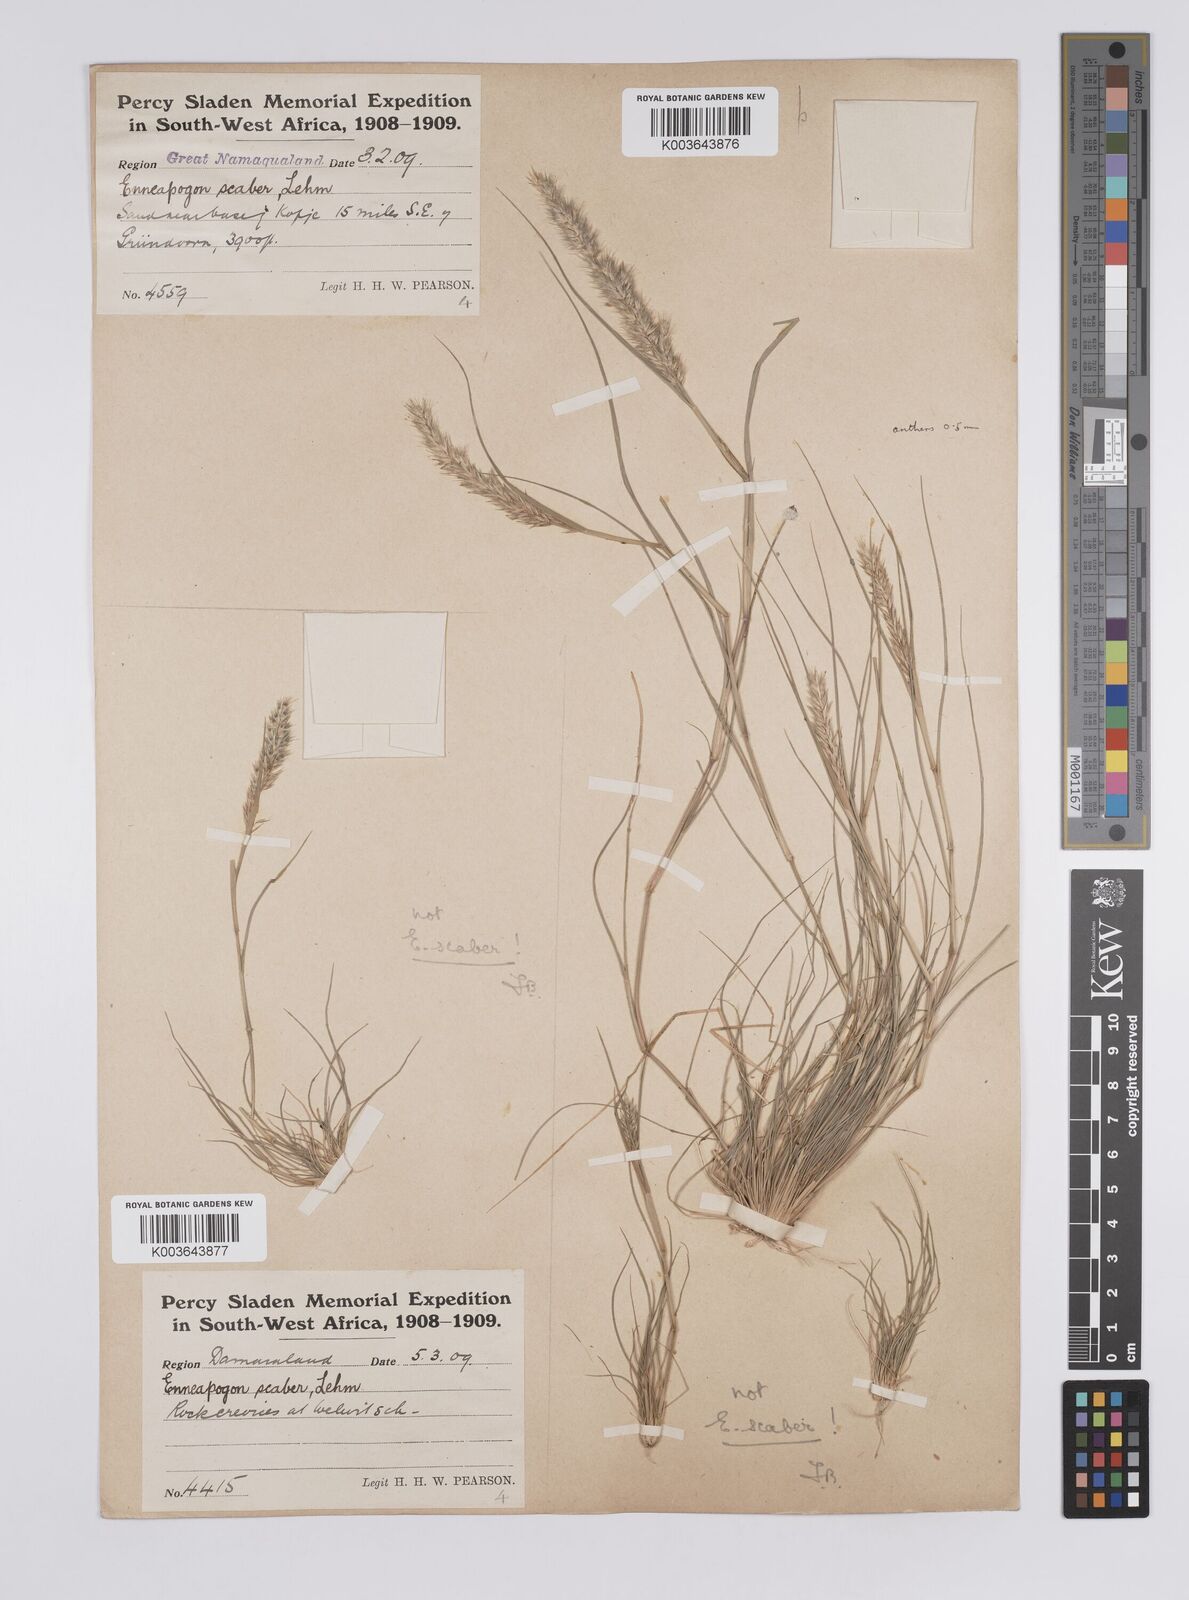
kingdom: Plantae
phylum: Tracheophyta
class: Liliopsida
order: Poales
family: Poaceae
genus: Enneapogon
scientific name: Enneapogon desvauxii
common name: Feather pappus grass
